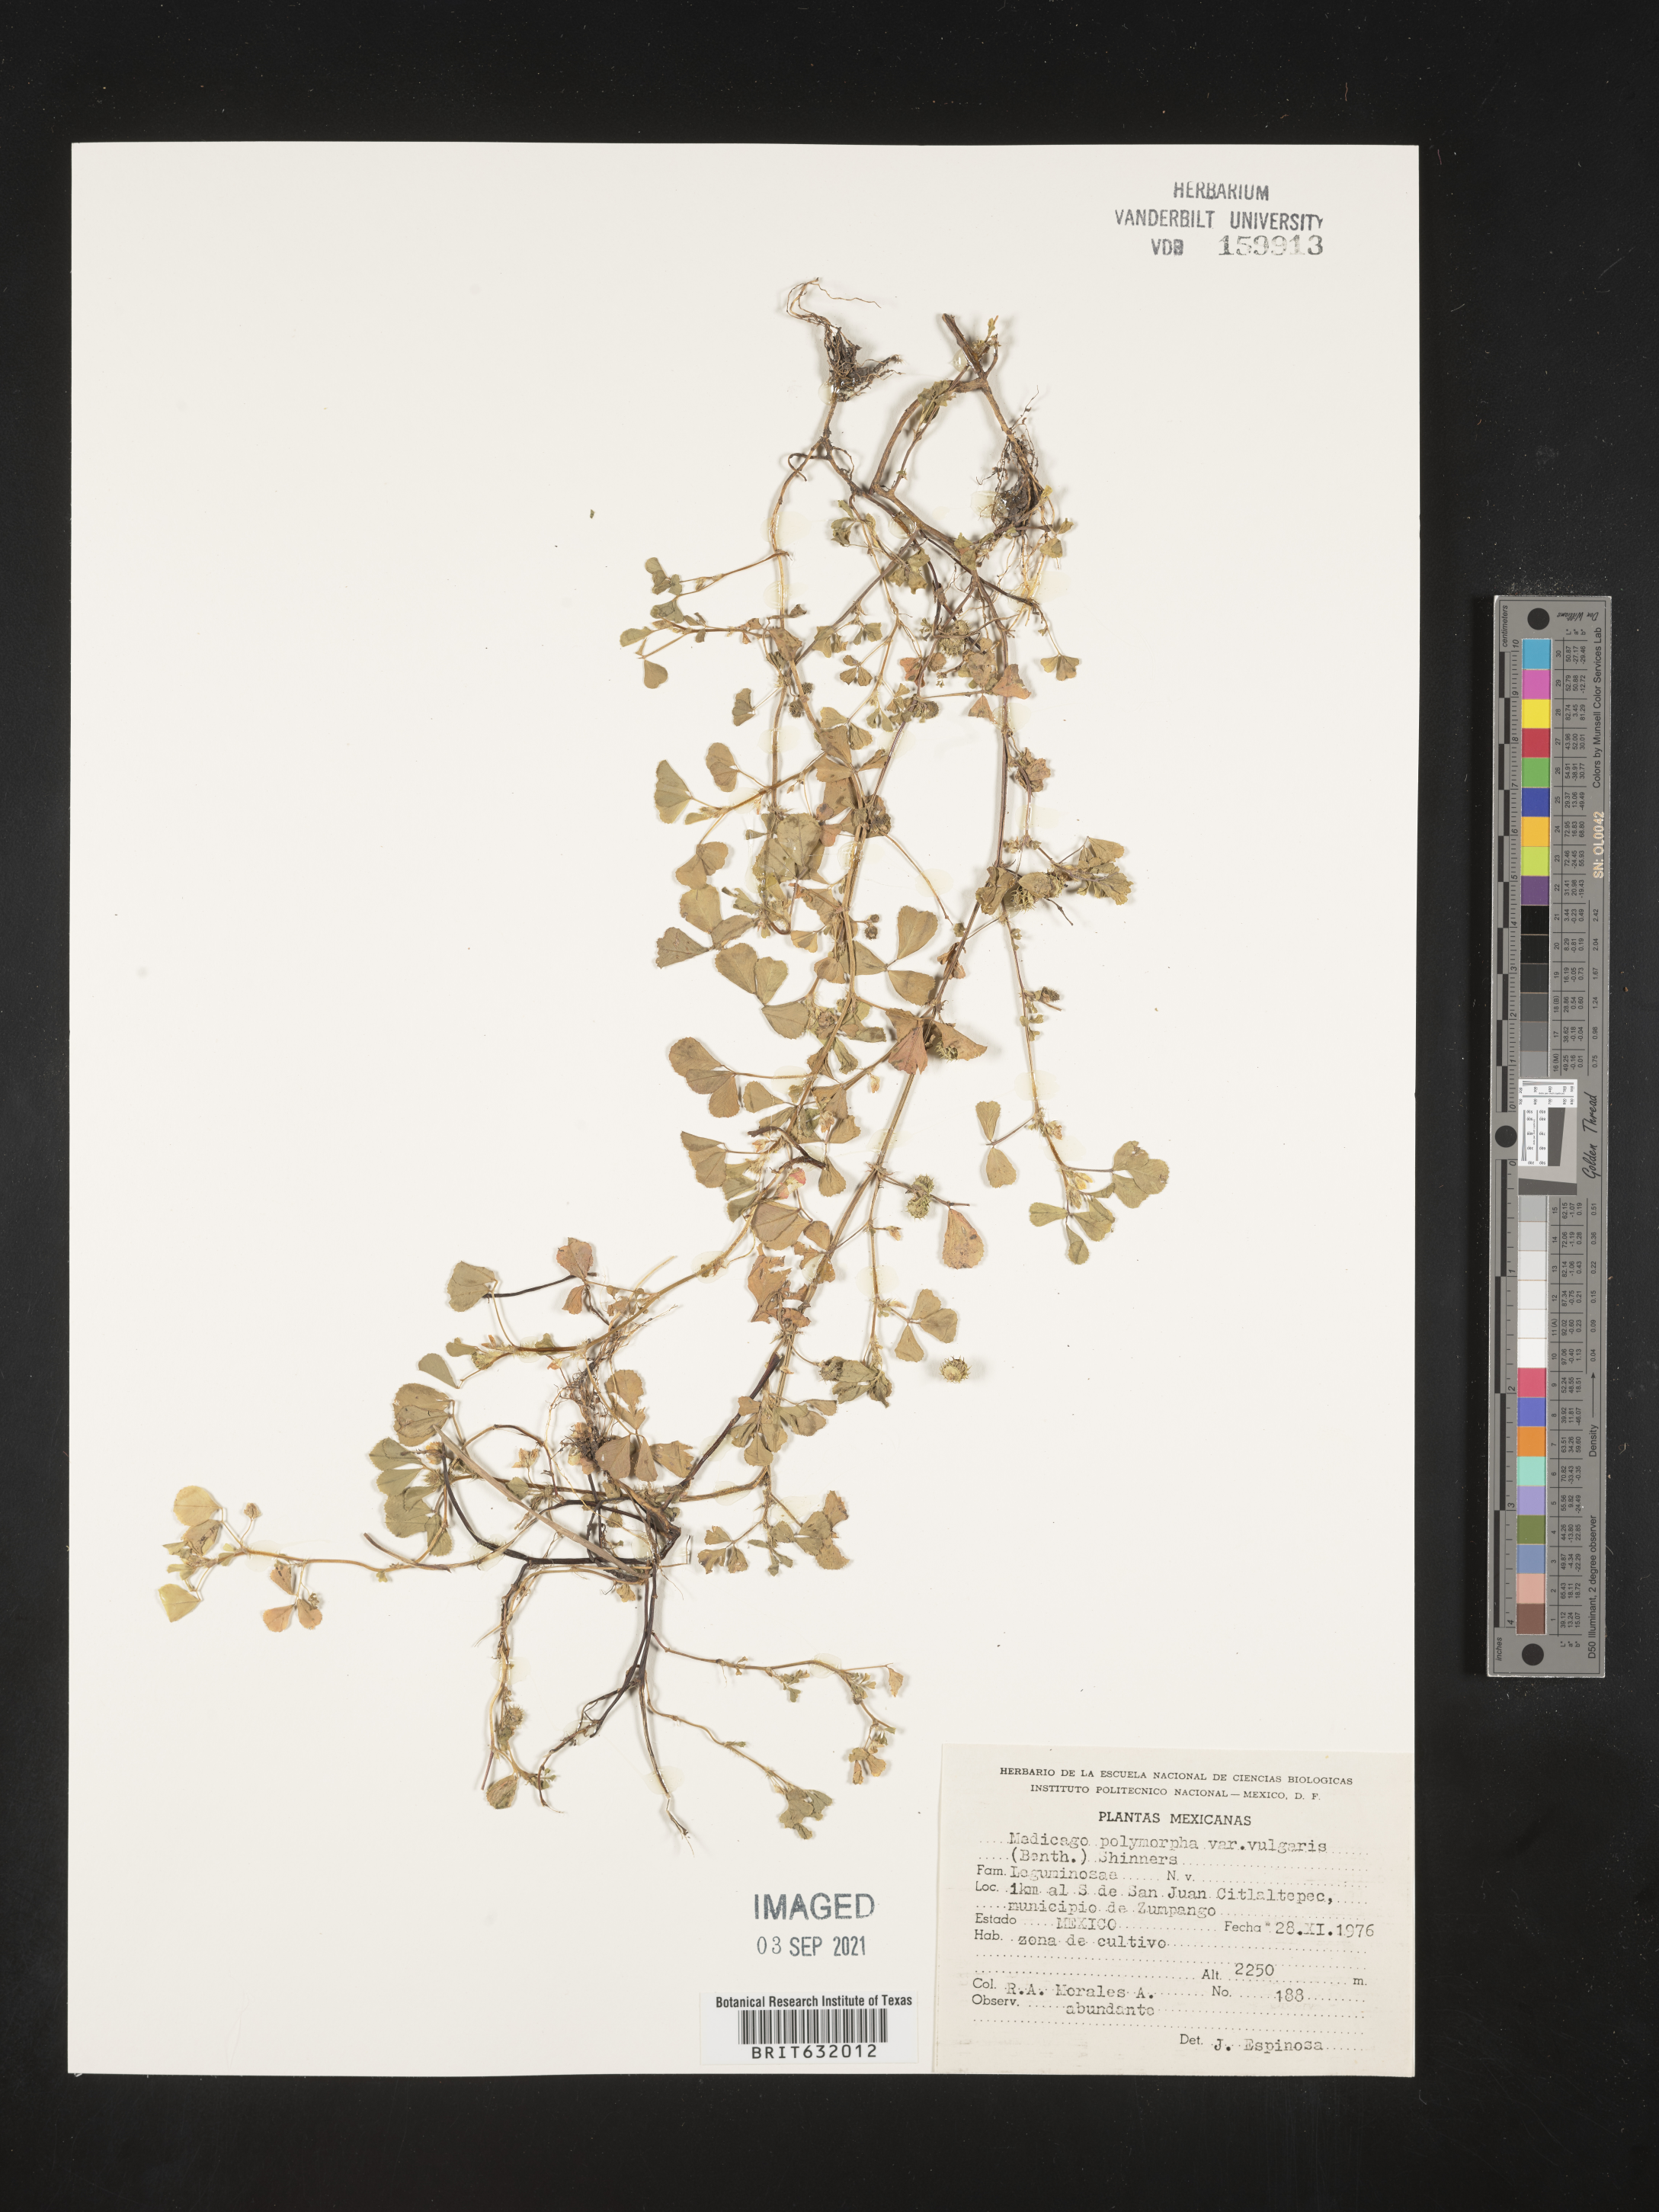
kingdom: Plantae
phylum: Tracheophyta
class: Magnoliopsida
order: Fabales
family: Fabaceae
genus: Medicago
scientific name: Medicago
